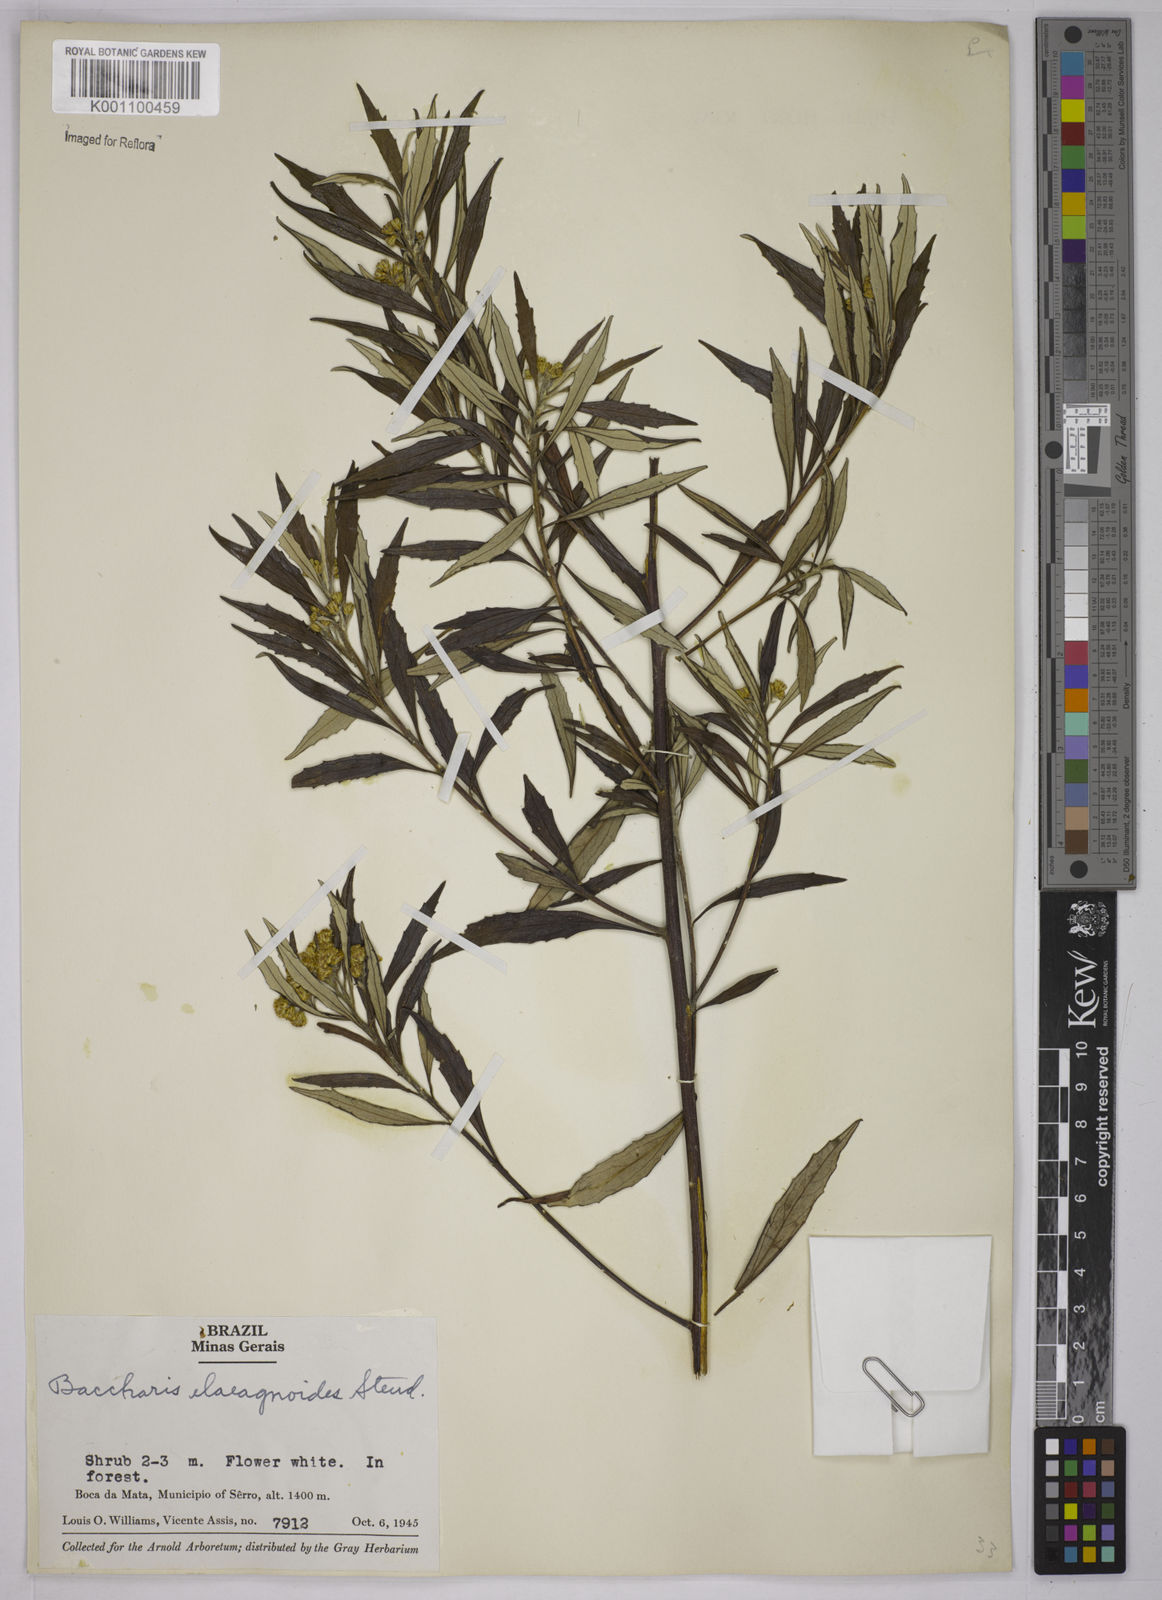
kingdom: Plantae
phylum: Tracheophyta
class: Magnoliopsida
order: Asterales
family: Asteraceae
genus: Baccharis
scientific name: Baccharis
